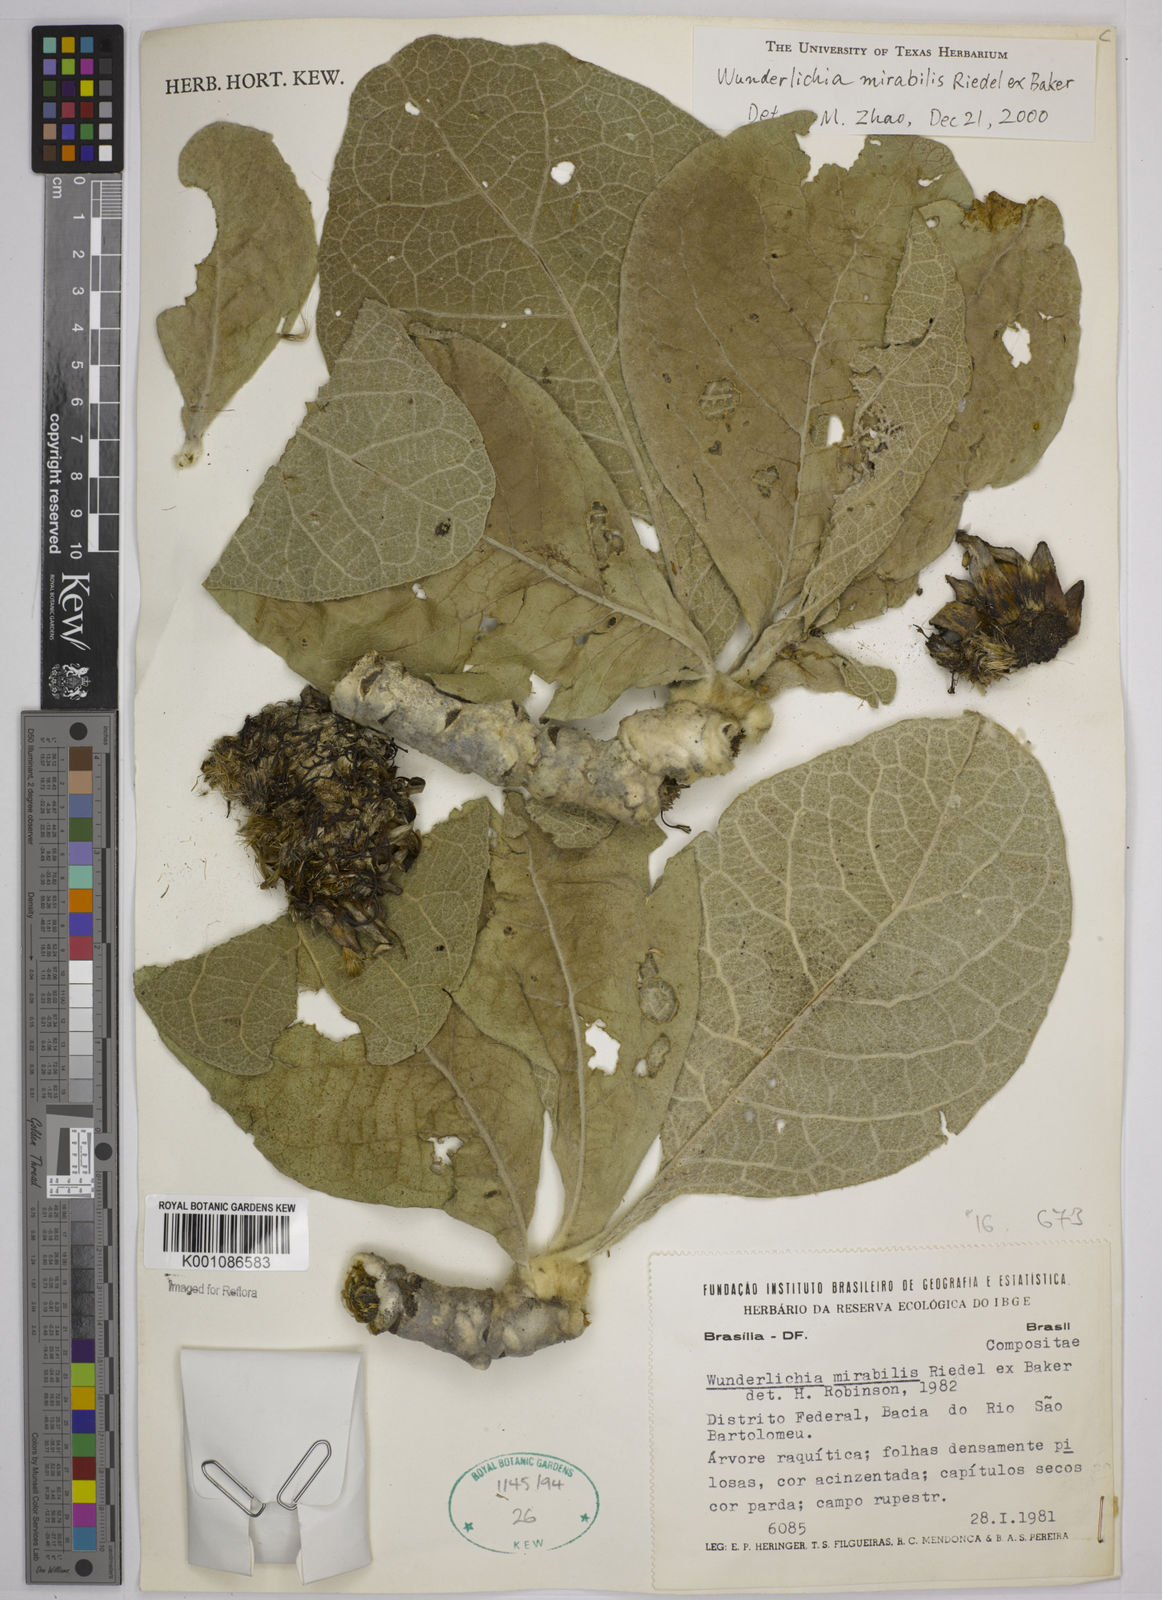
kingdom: Plantae
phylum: Tracheophyta
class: Magnoliopsida
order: Asterales
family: Asteraceae
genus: Wunderlichia
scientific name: Wunderlichia mirabilis
